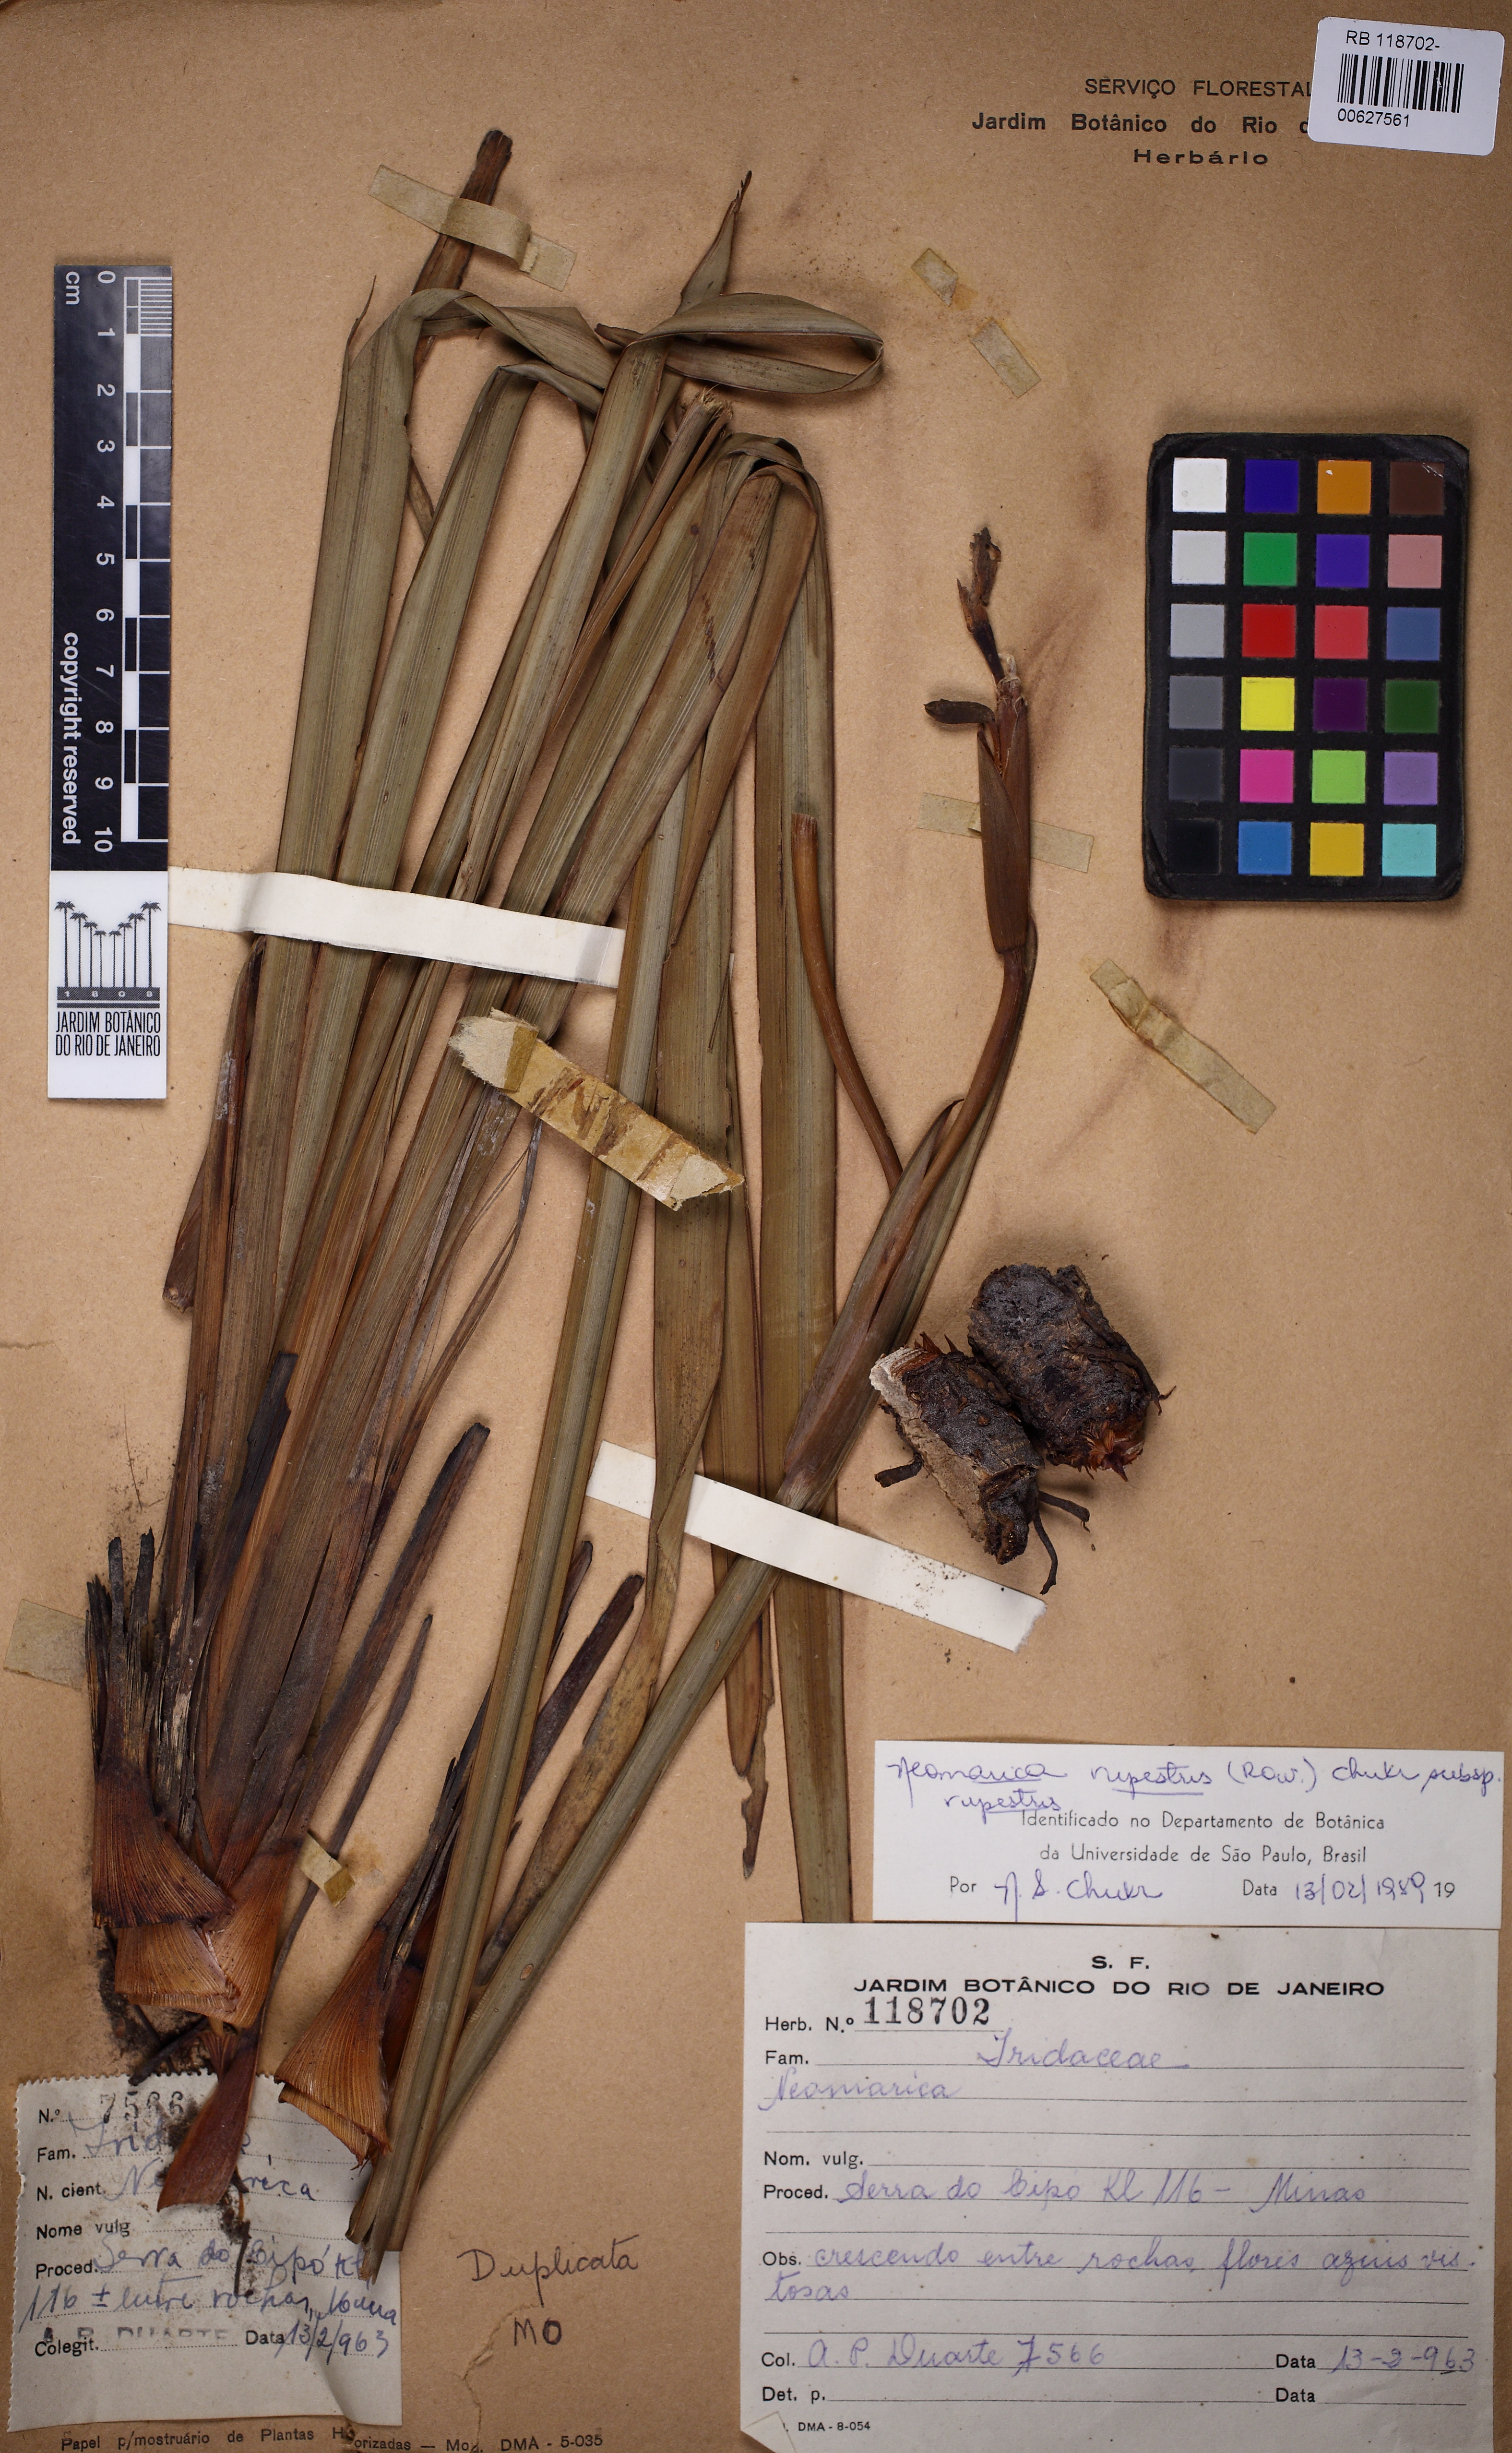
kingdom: Plantae
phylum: Tracheophyta
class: Liliopsida
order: Asparagales
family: Iridaceae
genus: Trimezia
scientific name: Trimezia rupestris
